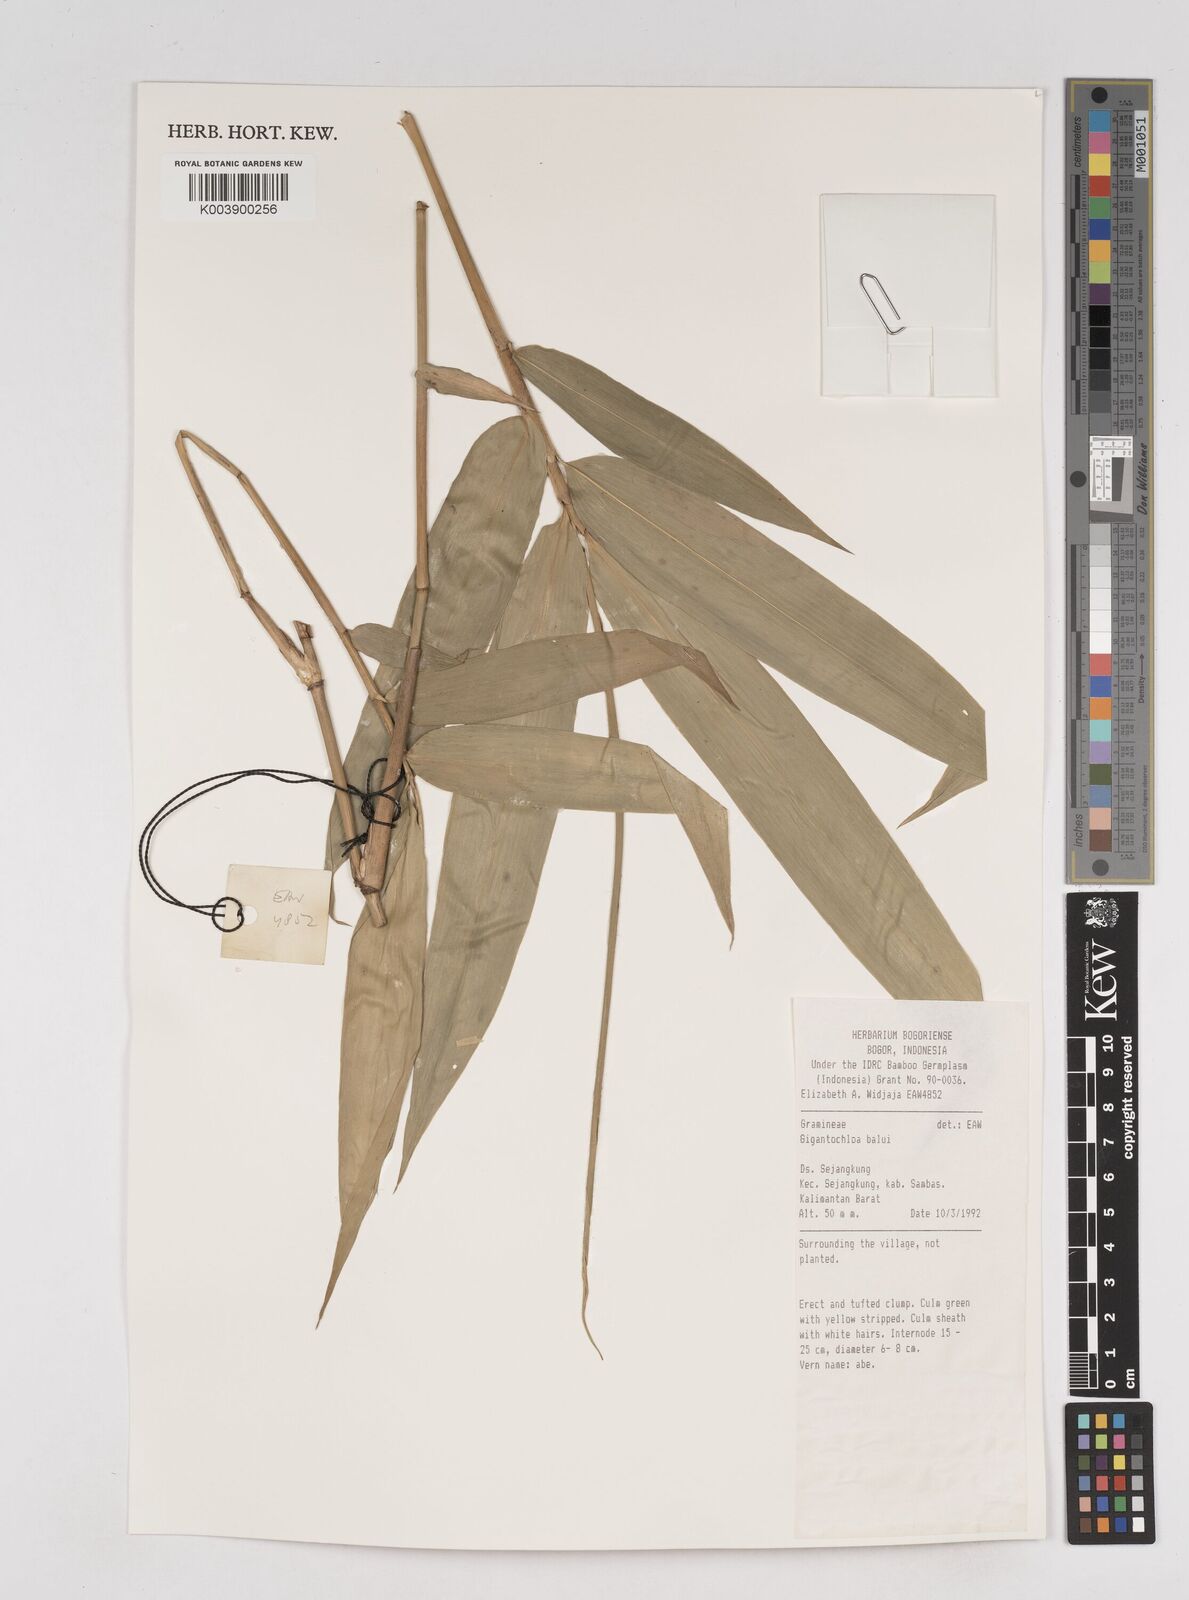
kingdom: Plantae
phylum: Tracheophyta
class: Liliopsida
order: Poales
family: Poaceae
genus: Gigantochloa
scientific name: Gigantochloa balui
